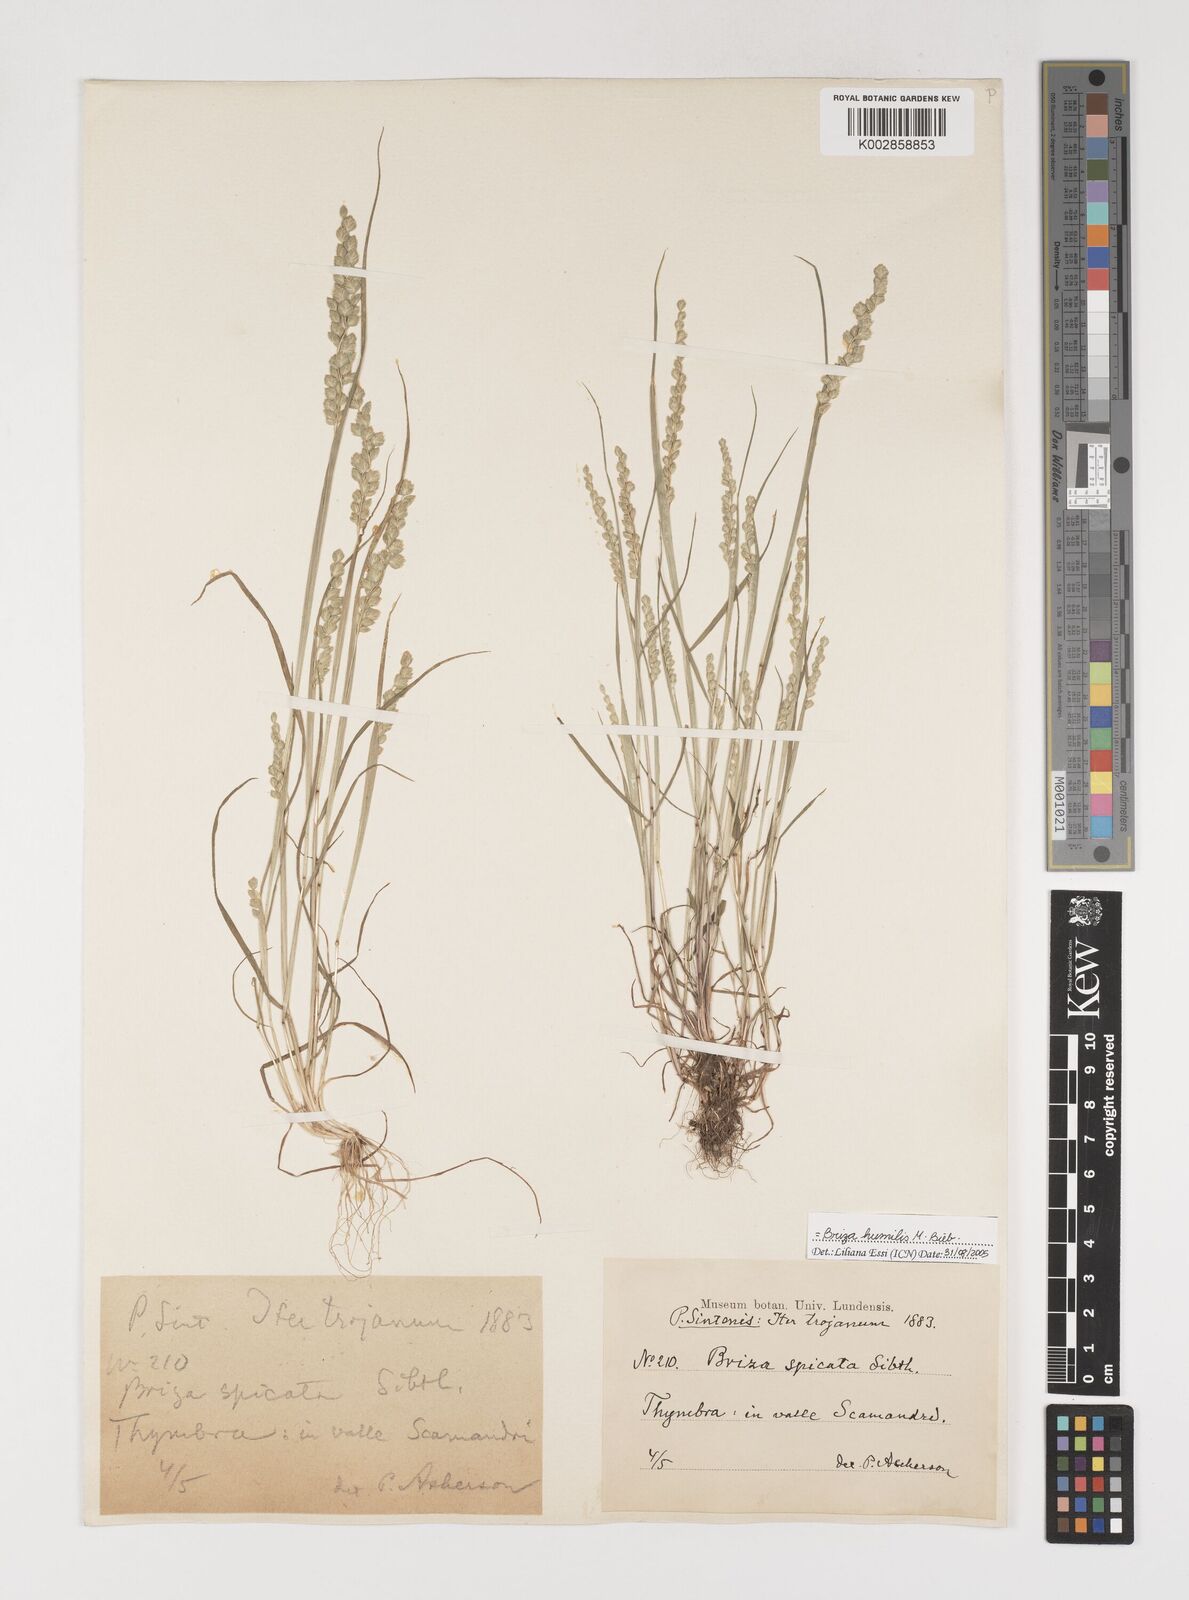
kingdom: Plantae
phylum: Tracheophyta
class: Liliopsida
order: Poales
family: Poaceae
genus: Briza
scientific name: Briza humilis
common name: Spiked quaking grass
